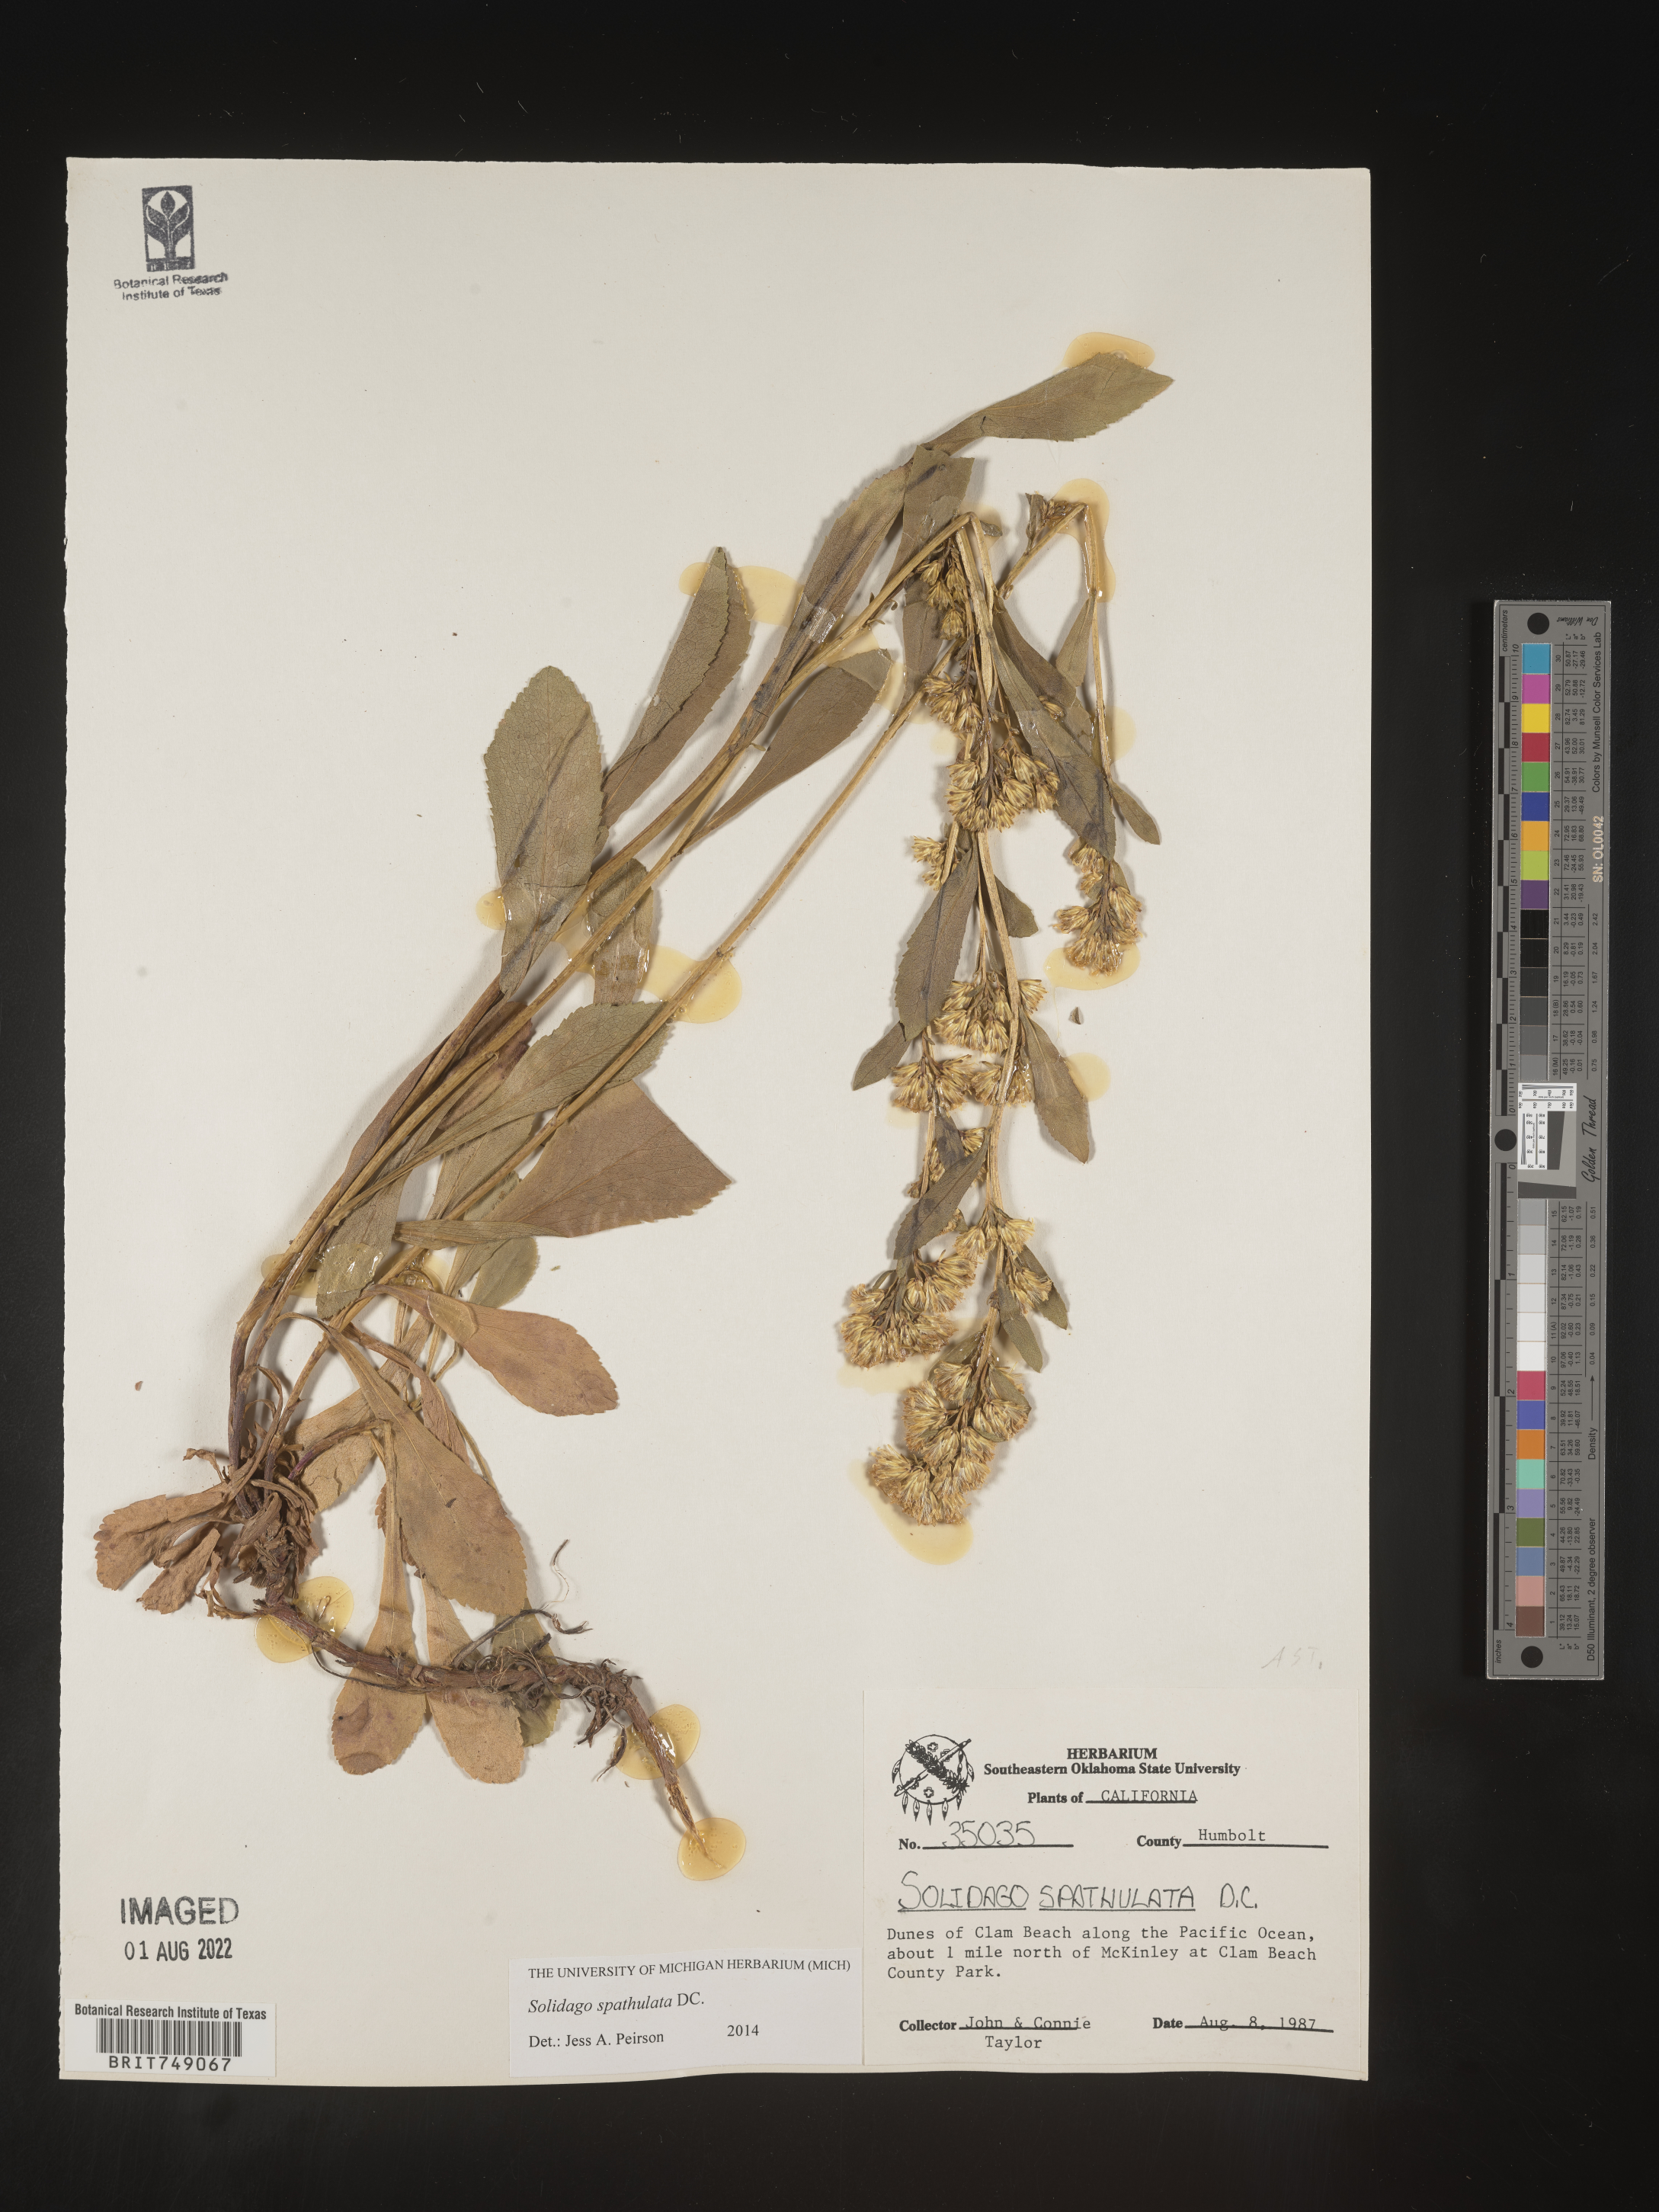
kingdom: Plantae
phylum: Tracheophyta
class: Magnoliopsida
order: Asterales
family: Asteraceae
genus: Solidago
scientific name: Solidago spathulata
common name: Coast goldenrod
